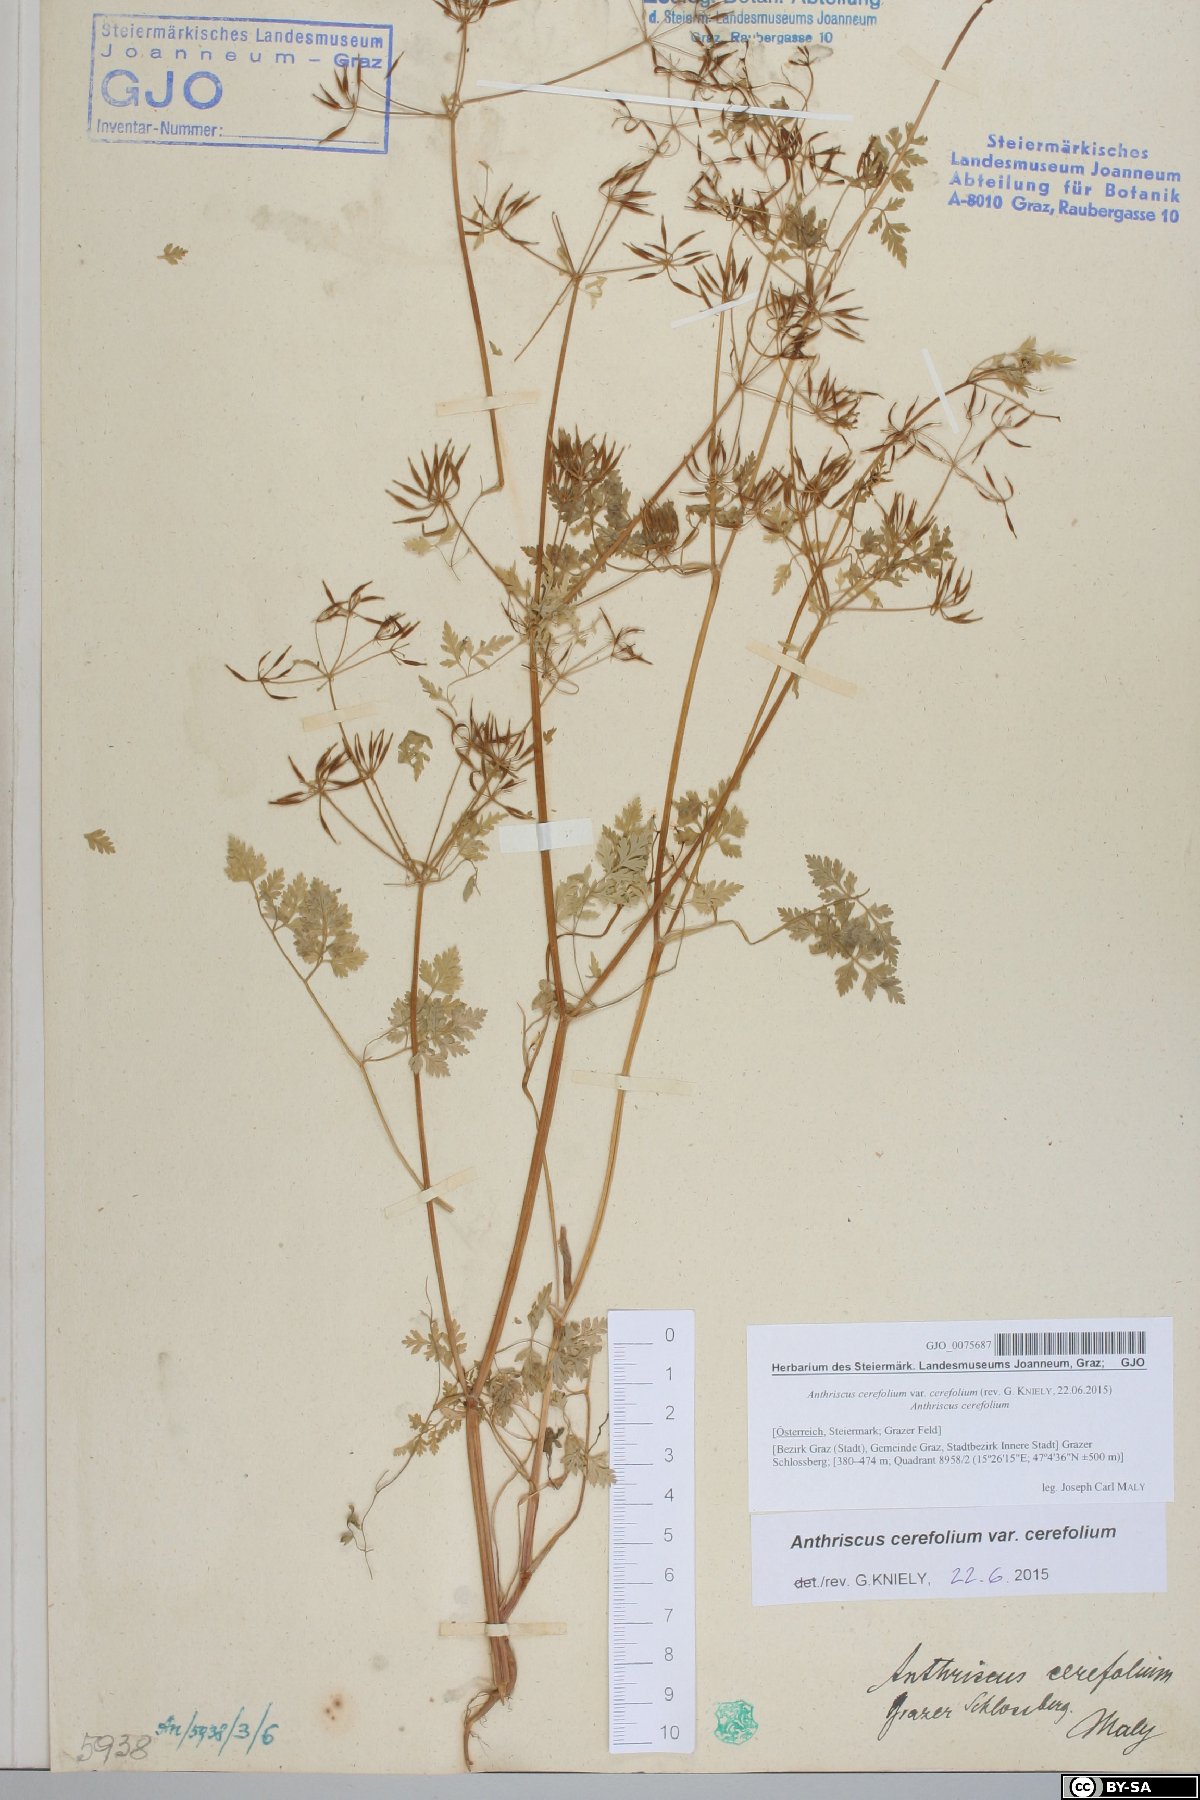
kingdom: Plantae
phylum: Tracheophyta
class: Magnoliopsida
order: Apiales
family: Apiaceae
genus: Anthriscus
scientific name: Anthriscus cerefolium
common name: Garden chervil
